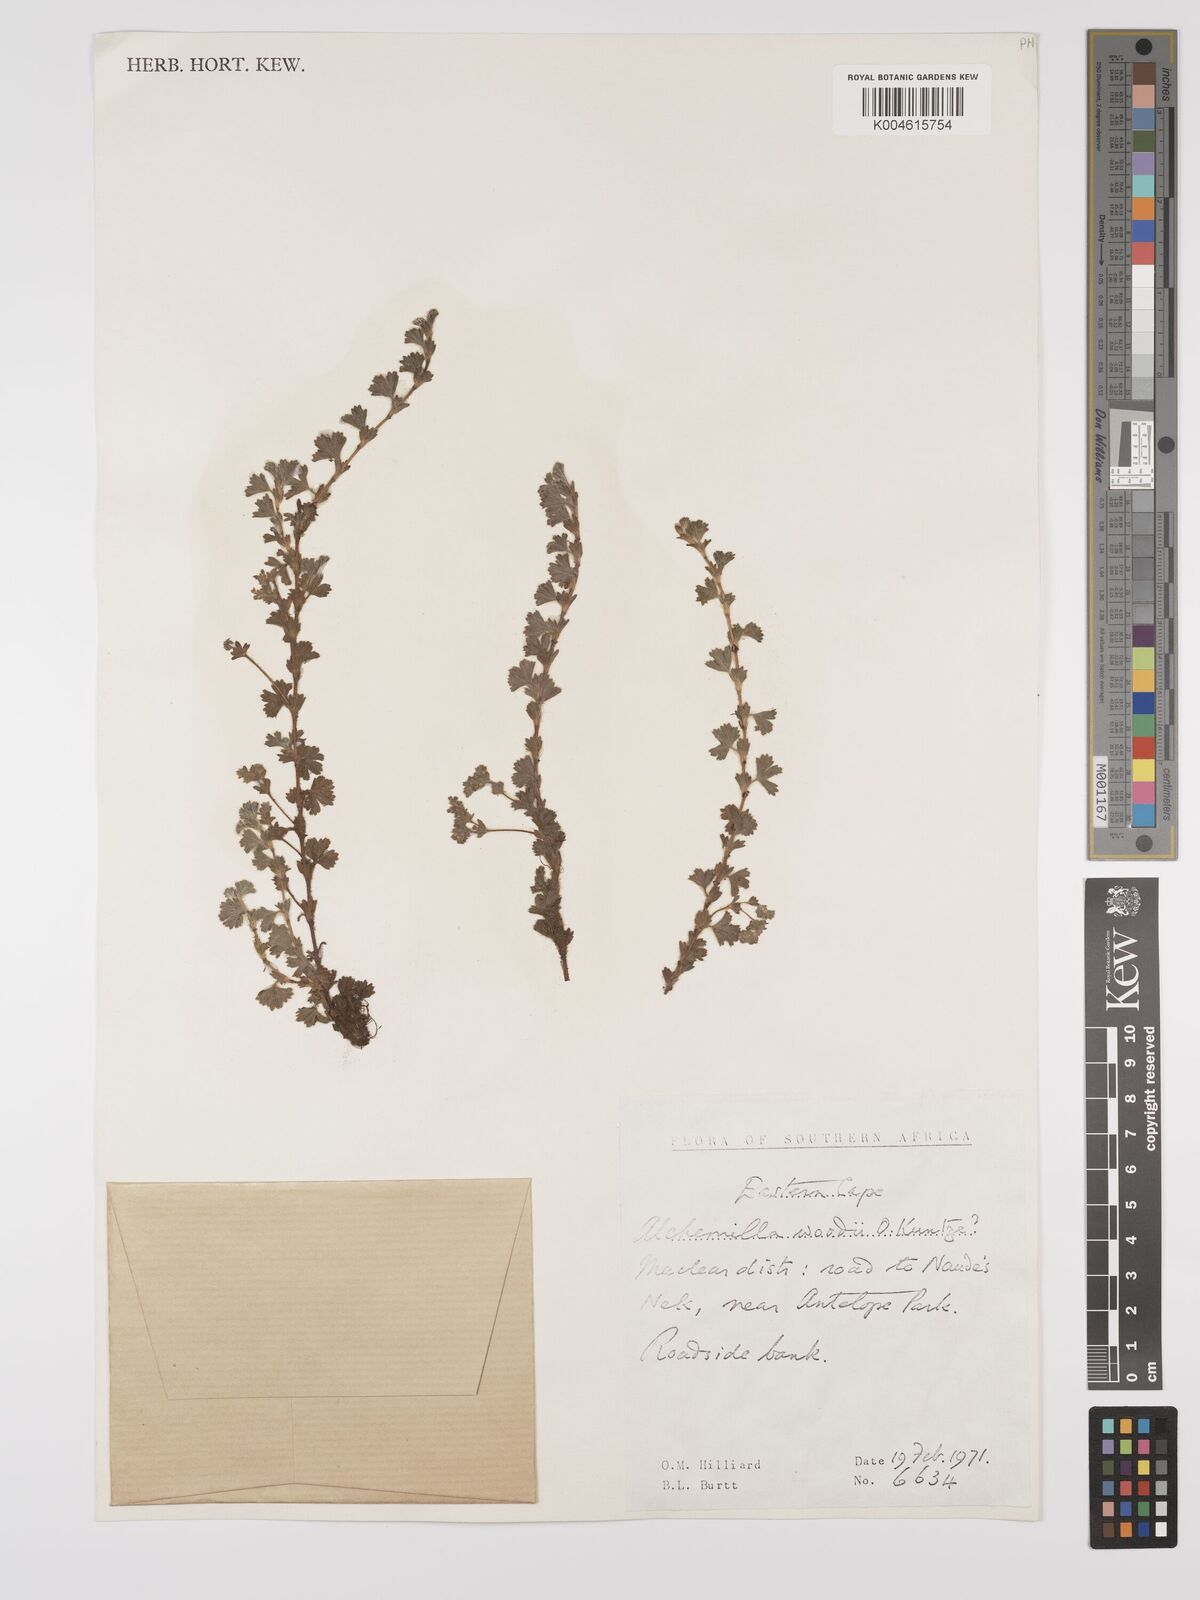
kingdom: Plantae
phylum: Tracheophyta
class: Magnoliopsida
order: Rosales
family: Rosaceae
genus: Alchemilla
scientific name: Alchemilla woodii
